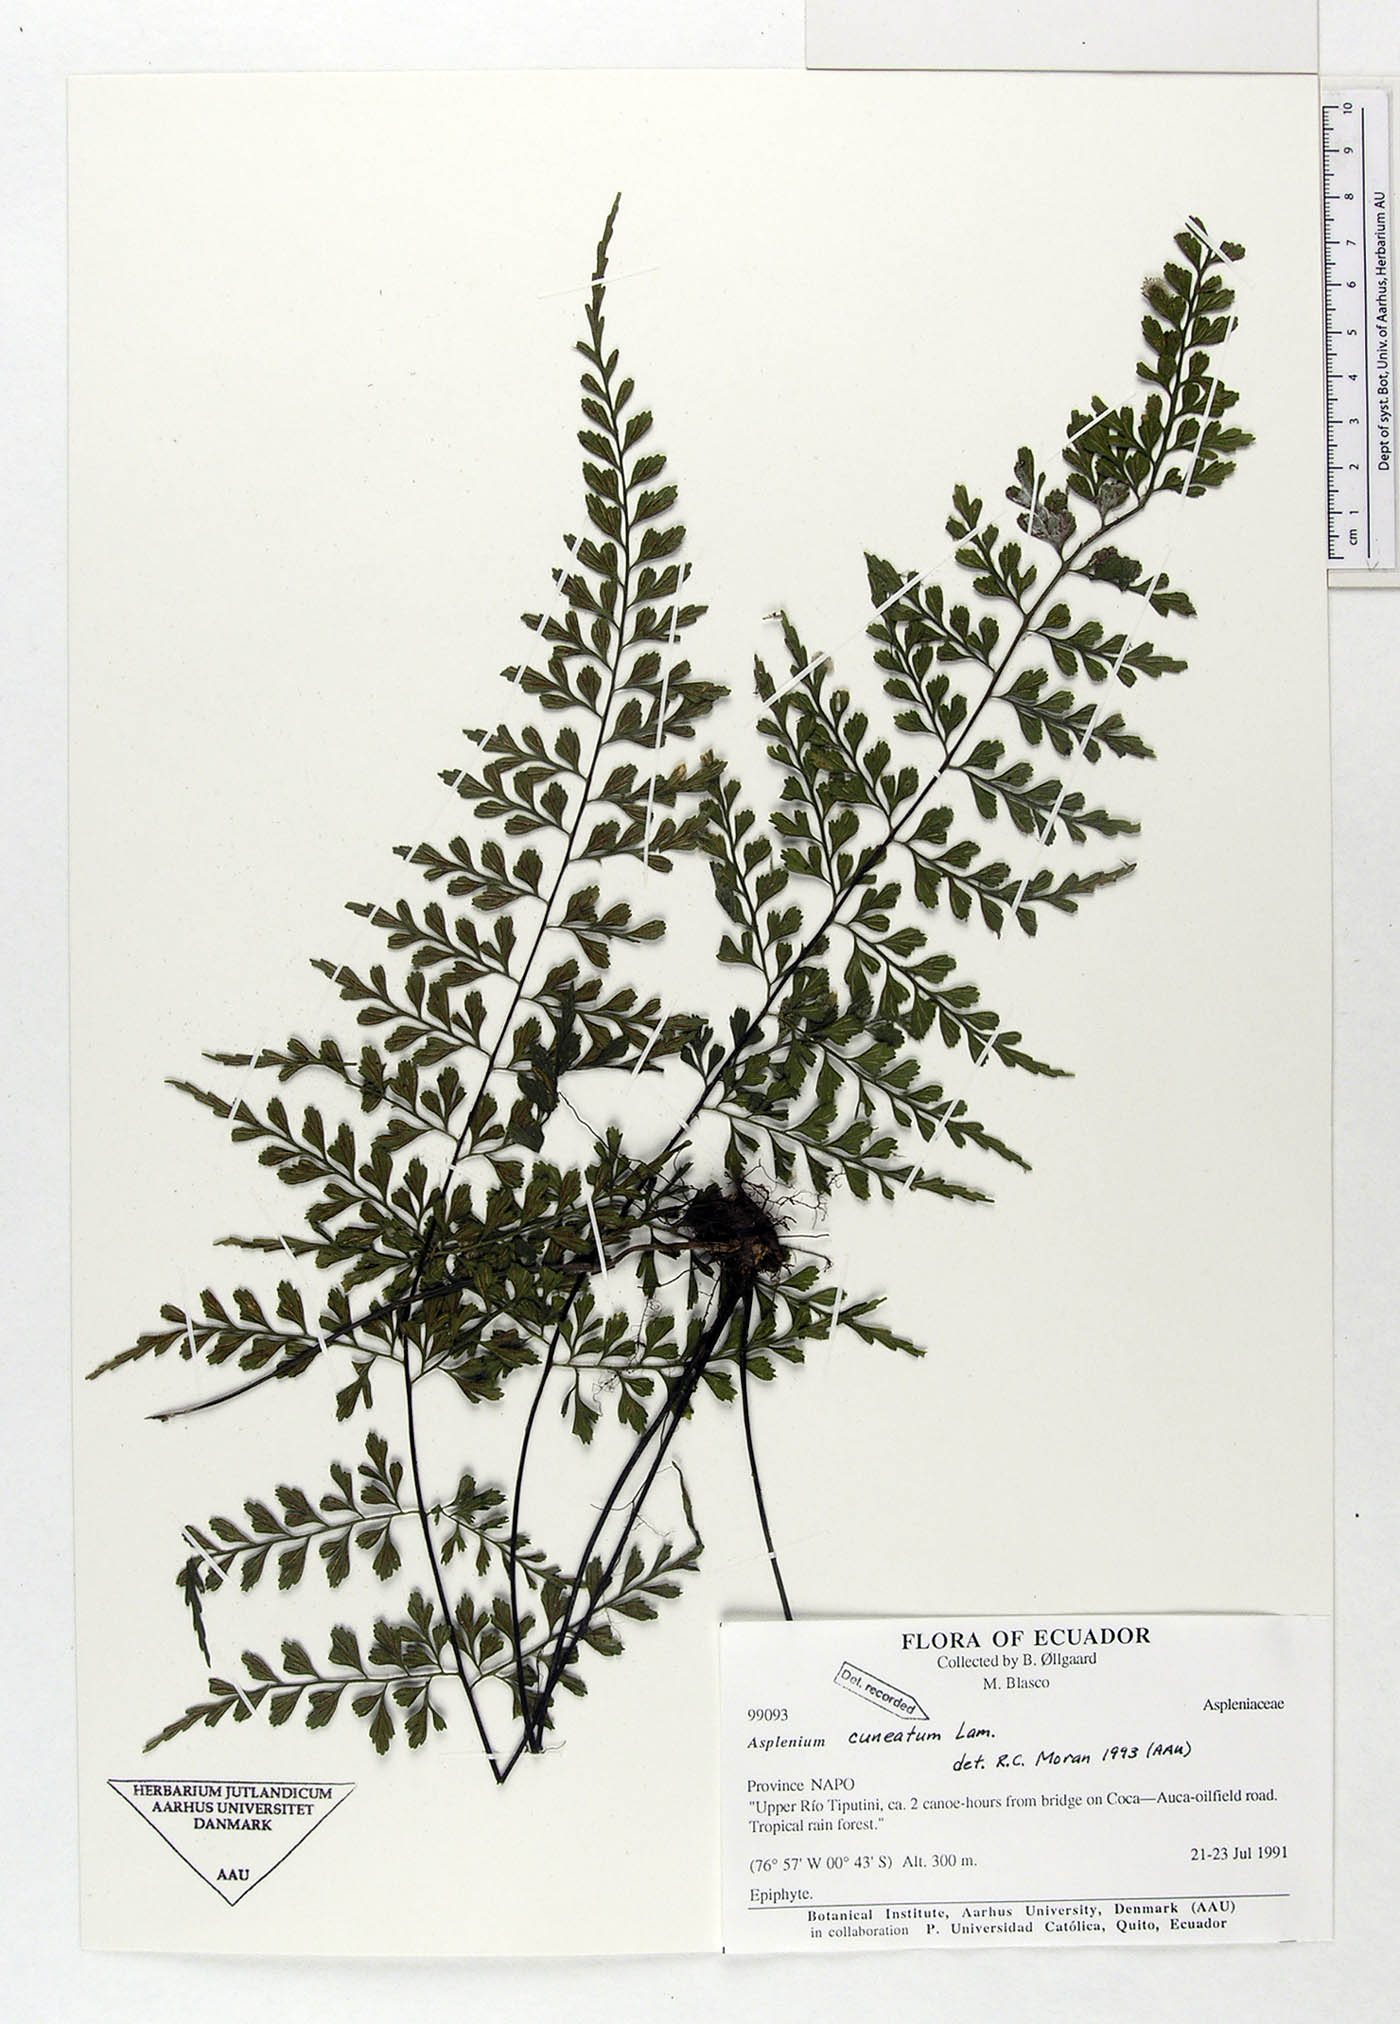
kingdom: Plantae
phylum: Tracheophyta
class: Polypodiopsida
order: Polypodiales
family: Aspleniaceae
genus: Asplenium
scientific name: Asplenium cuneatum
